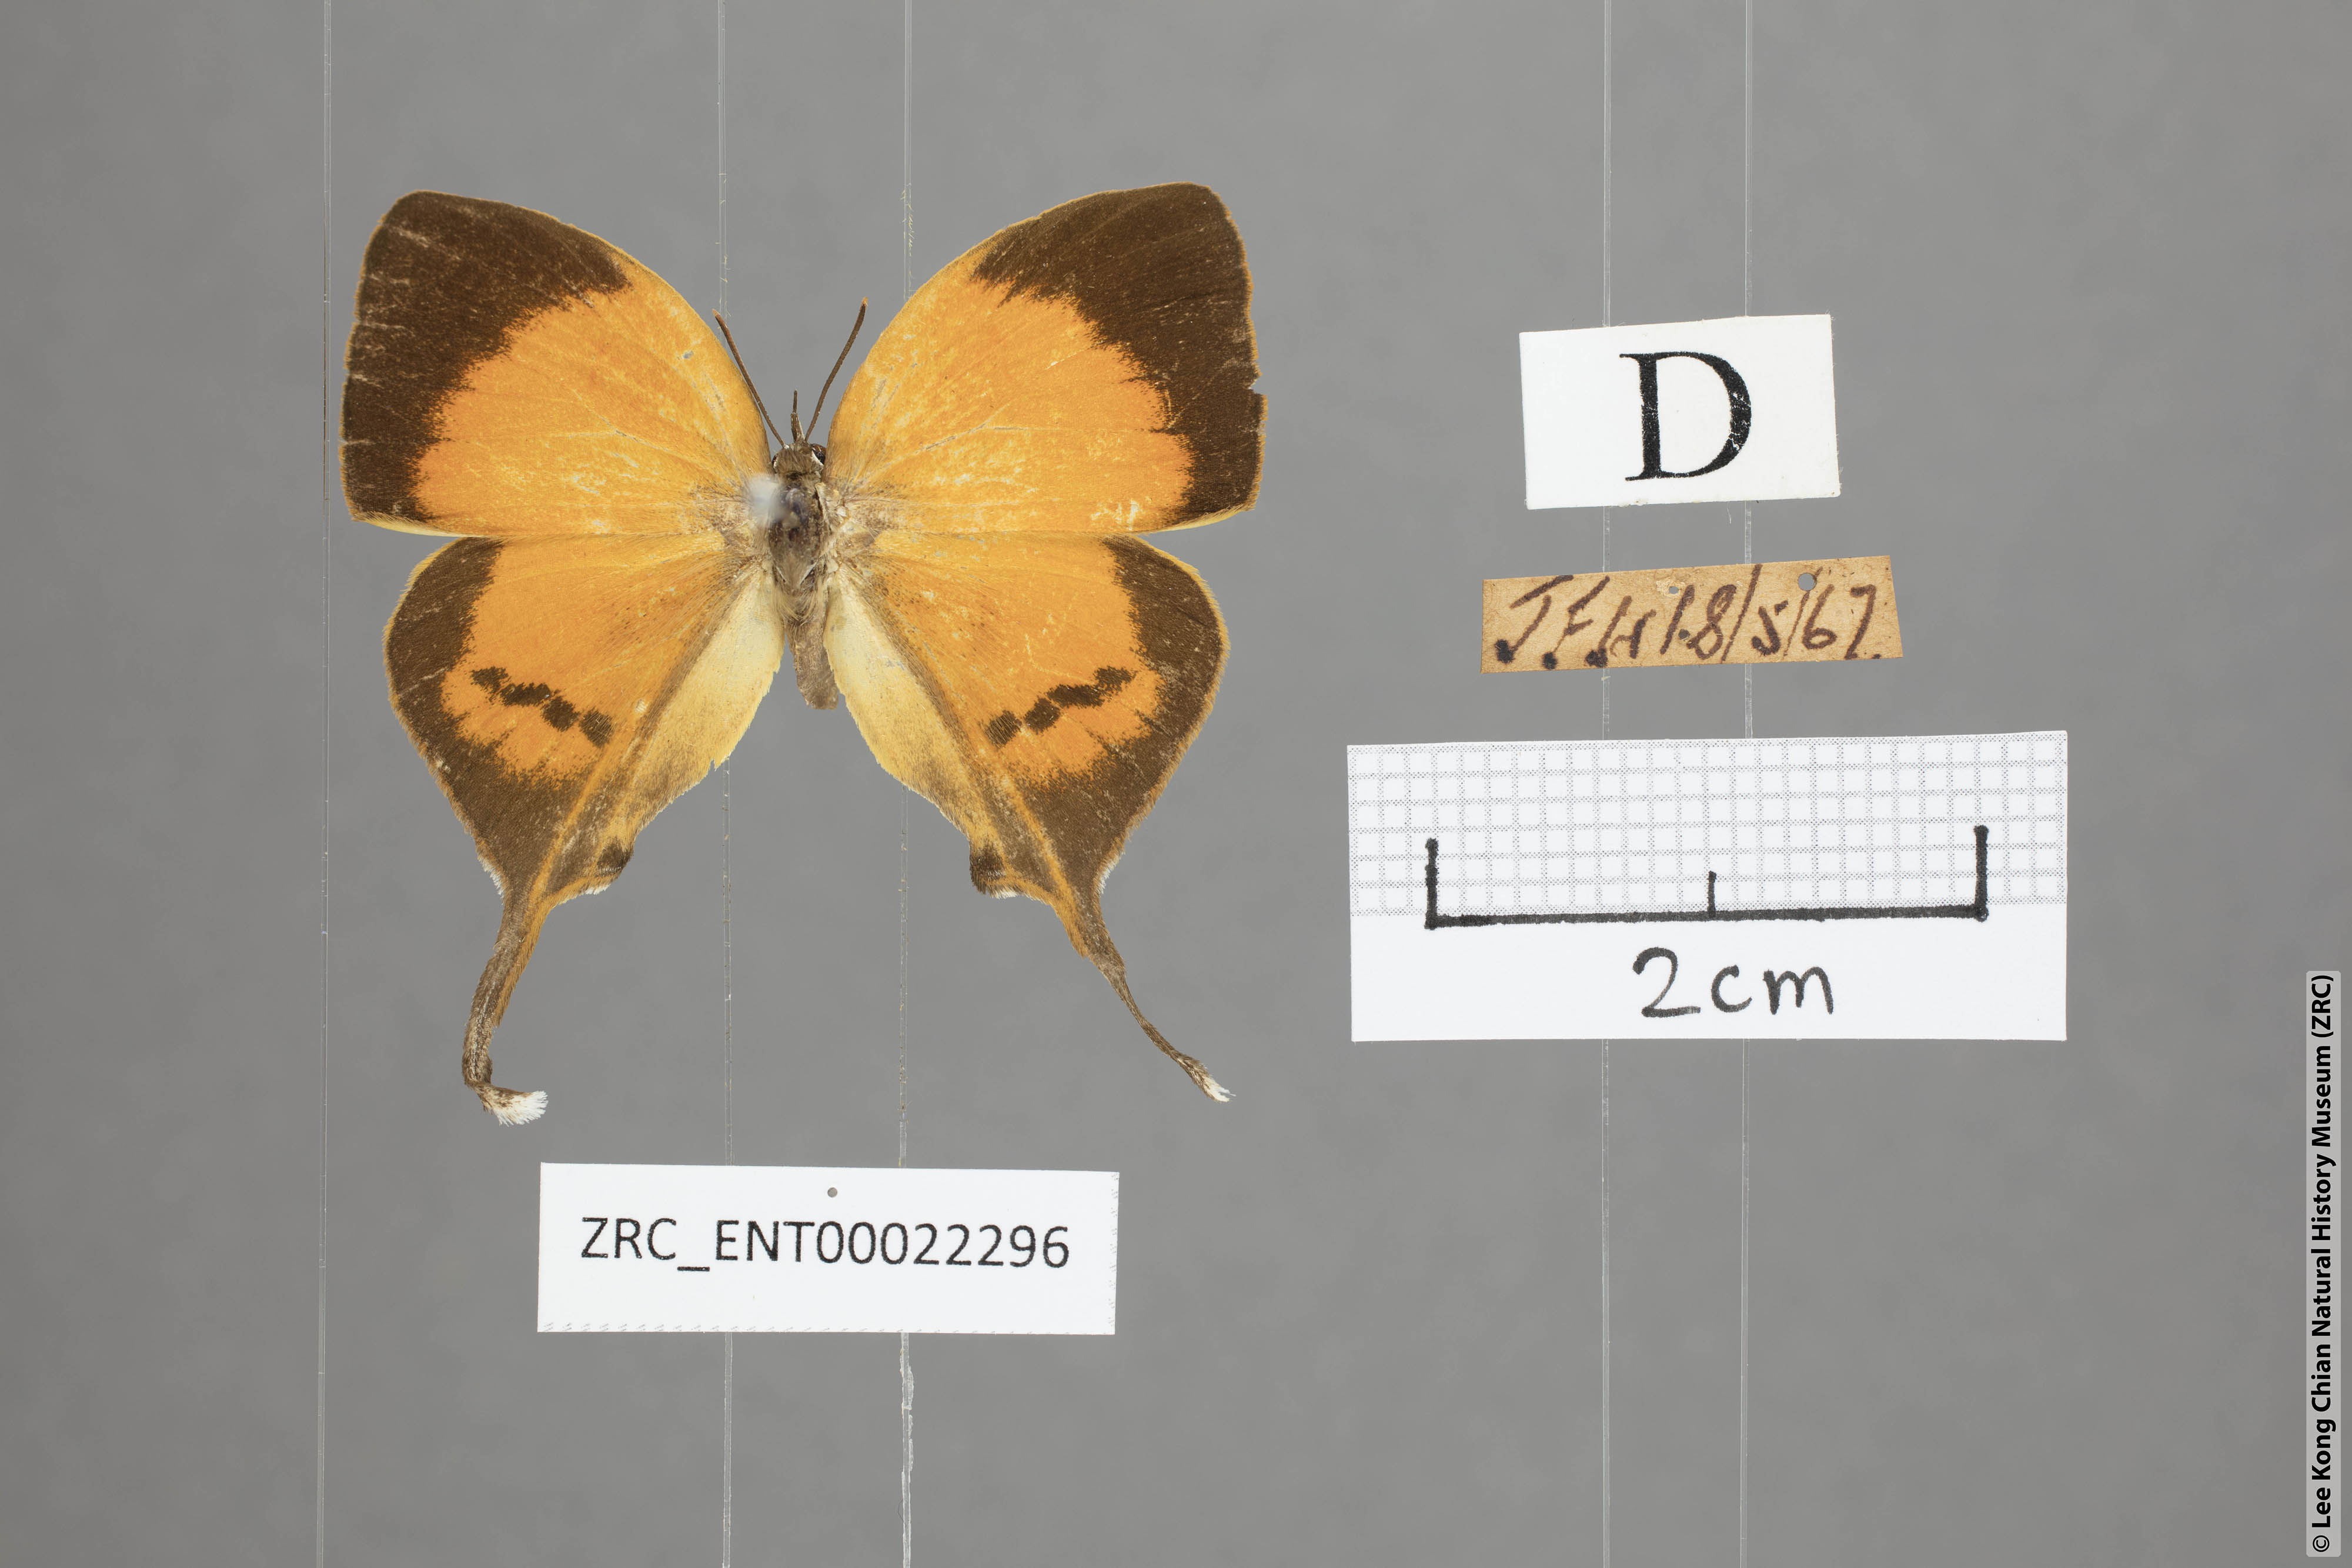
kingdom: Animalia
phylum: Arthropoda
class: Insecta
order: Lepidoptera
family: Lycaenidae
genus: Yasoda
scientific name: Yasoda pita
